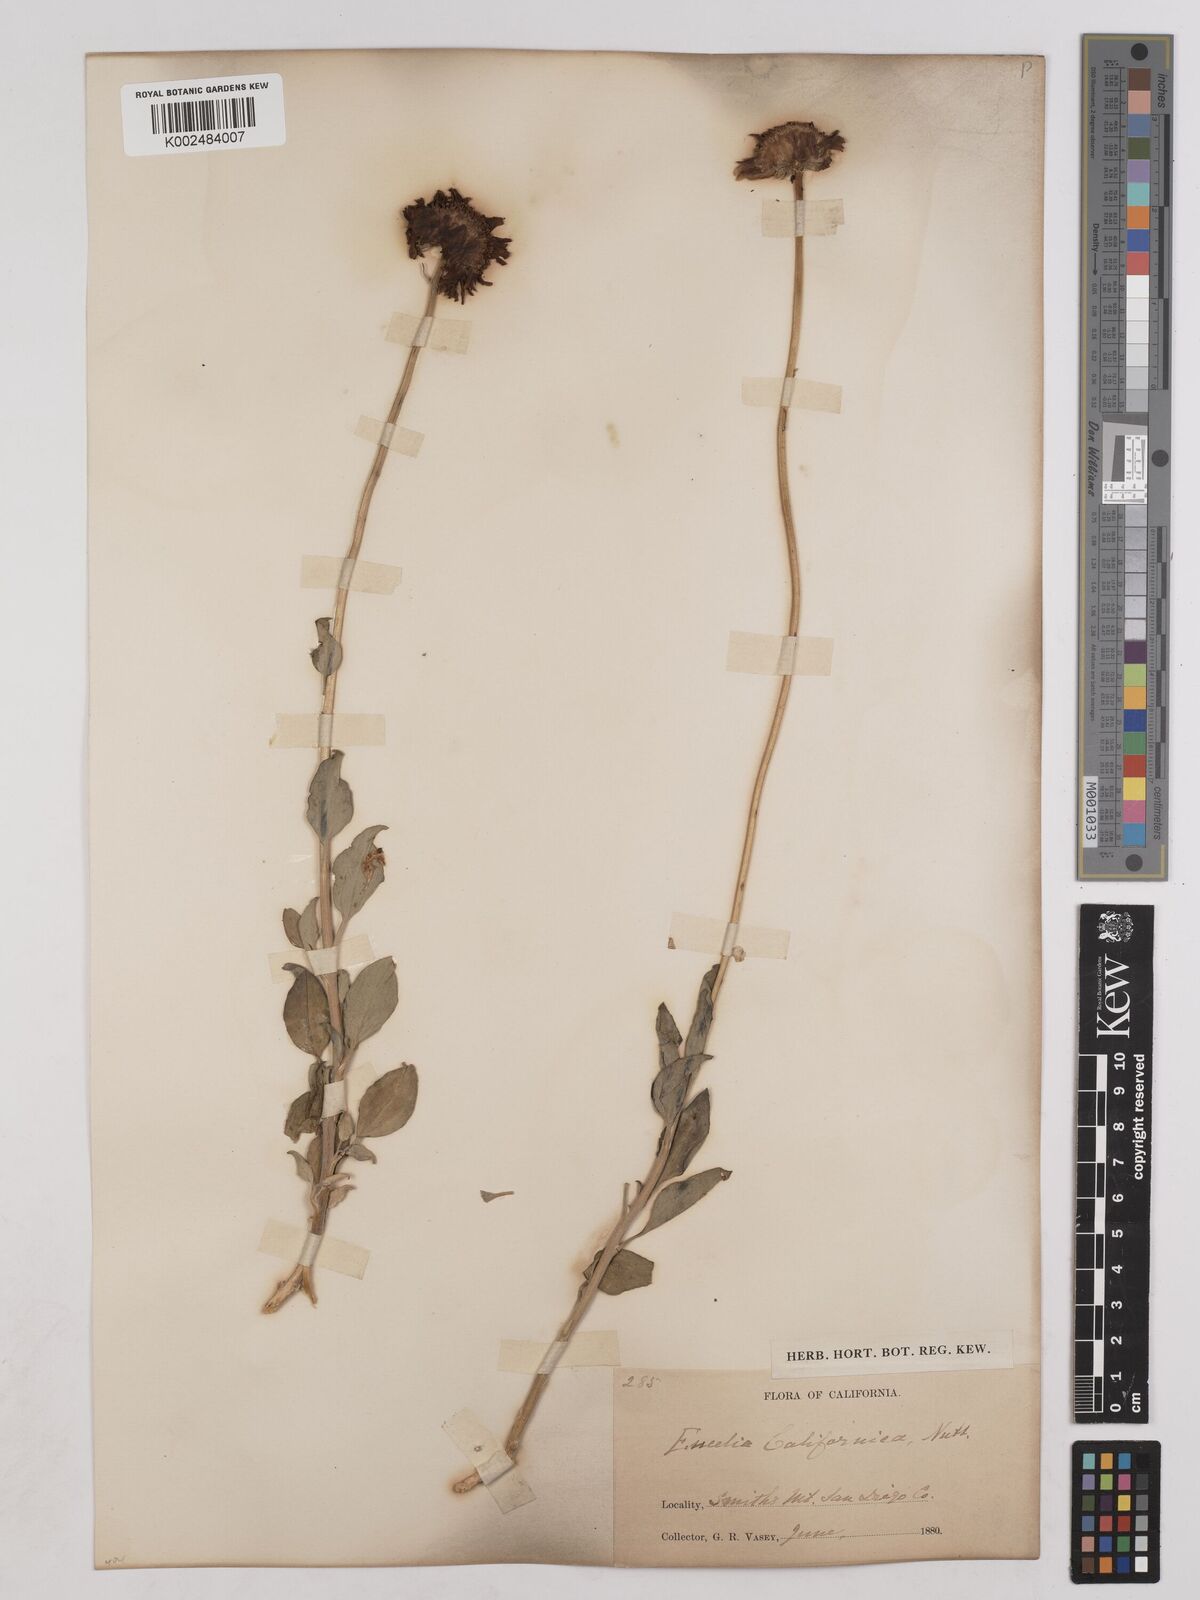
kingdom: Plantae
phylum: Tracheophyta
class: Magnoliopsida
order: Asterales
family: Asteraceae
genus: Encelia
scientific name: Encelia californica
